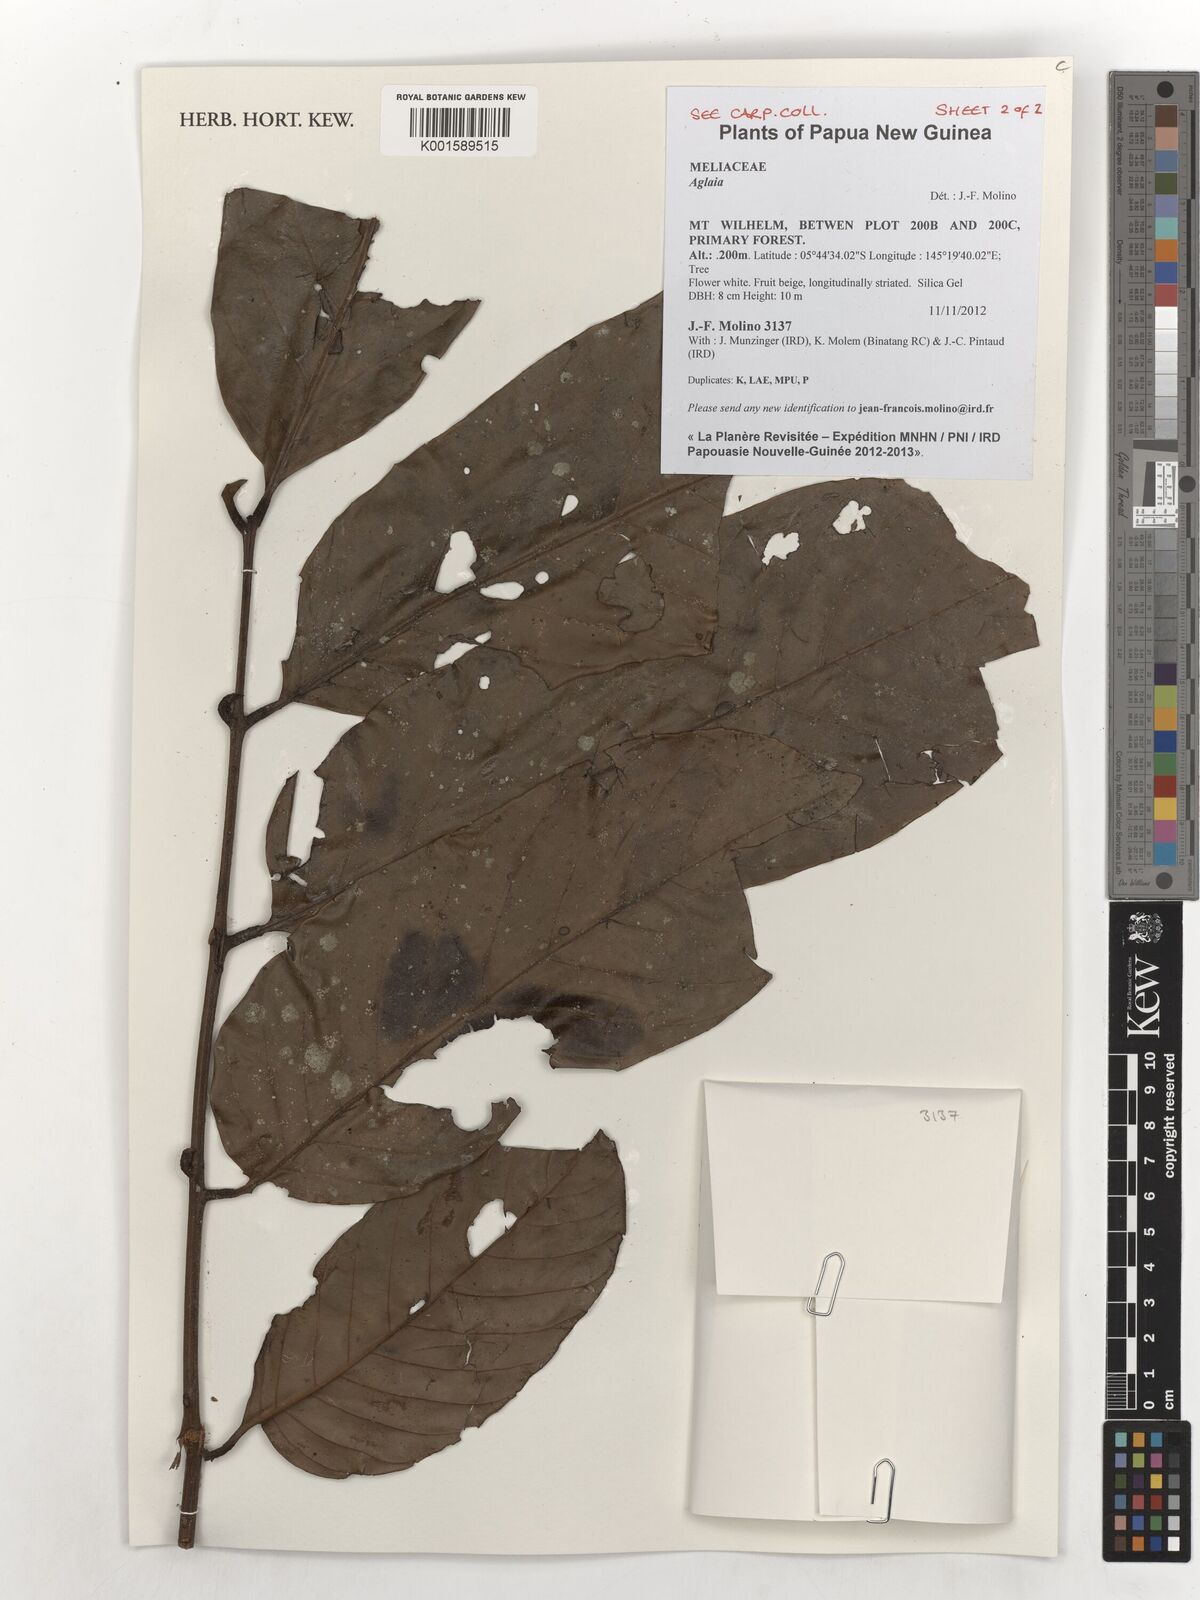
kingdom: Plantae
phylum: Tracheophyta
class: Magnoliopsida
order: Sapindales
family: Meliaceae
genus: Aglaia
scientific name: Aglaia
